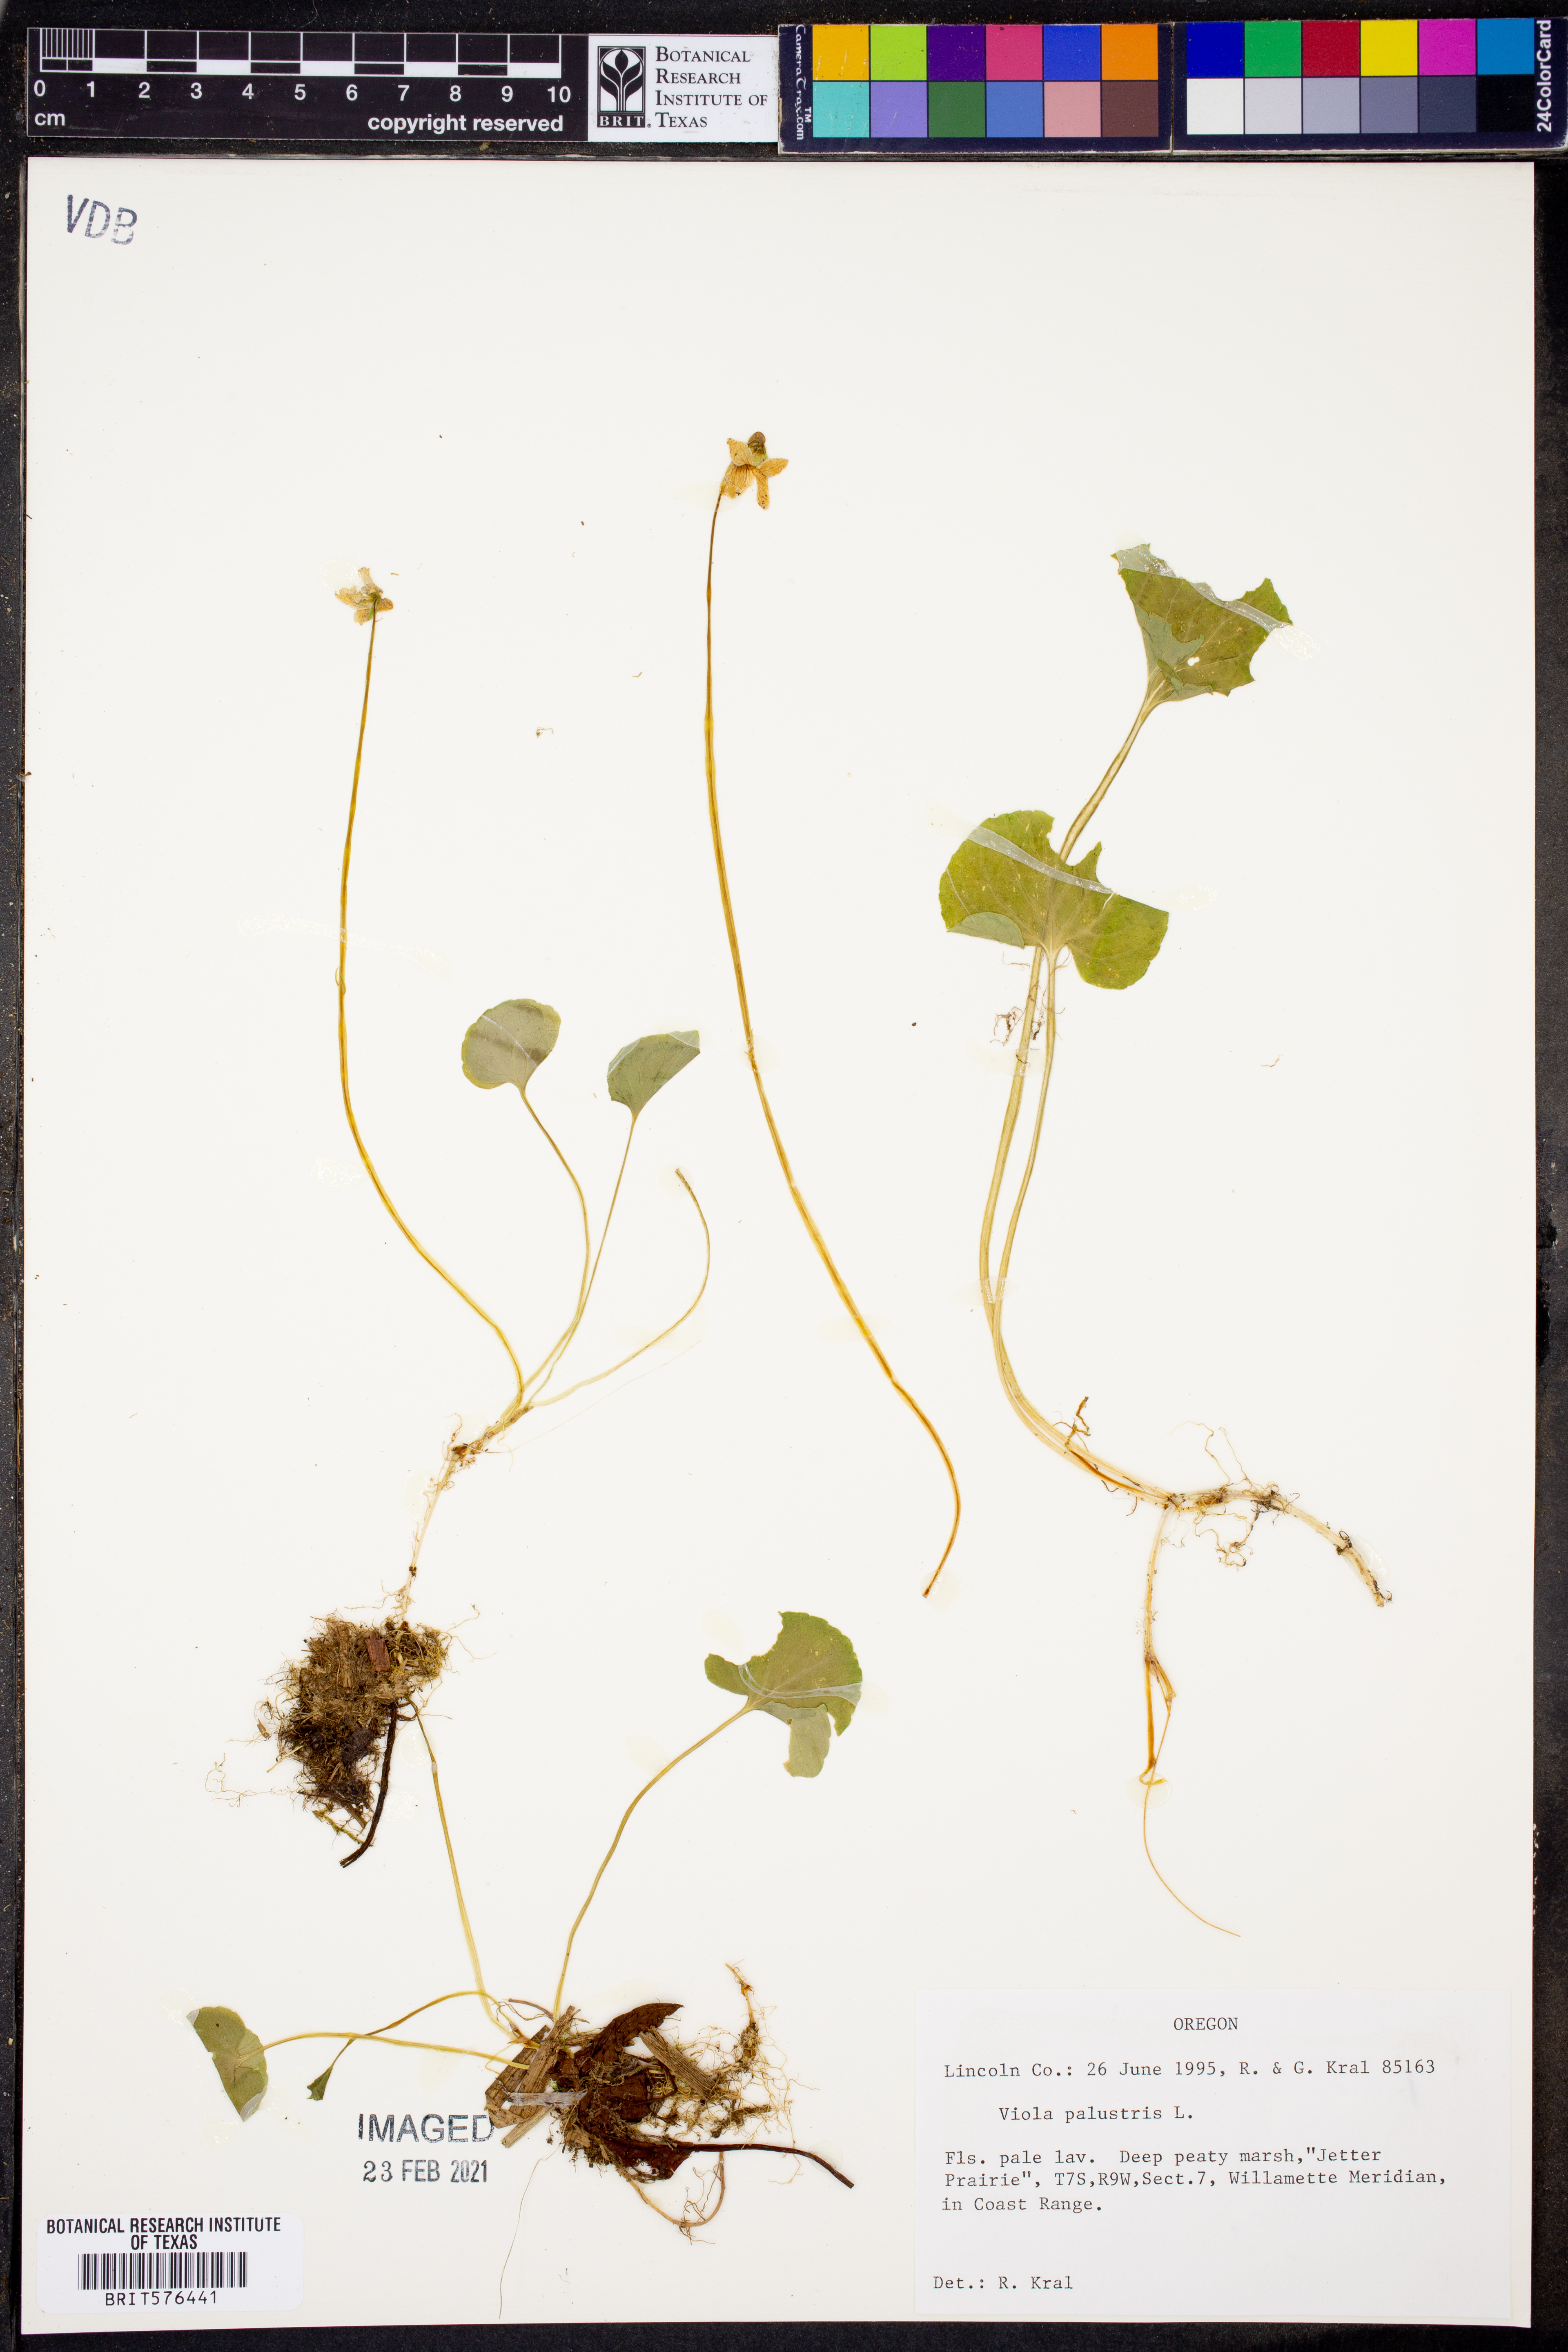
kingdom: Plantae
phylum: Tracheophyta
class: Magnoliopsida
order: Malpighiales
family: Violaceae
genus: Viola
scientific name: Viola palustris
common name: Marsh violet
